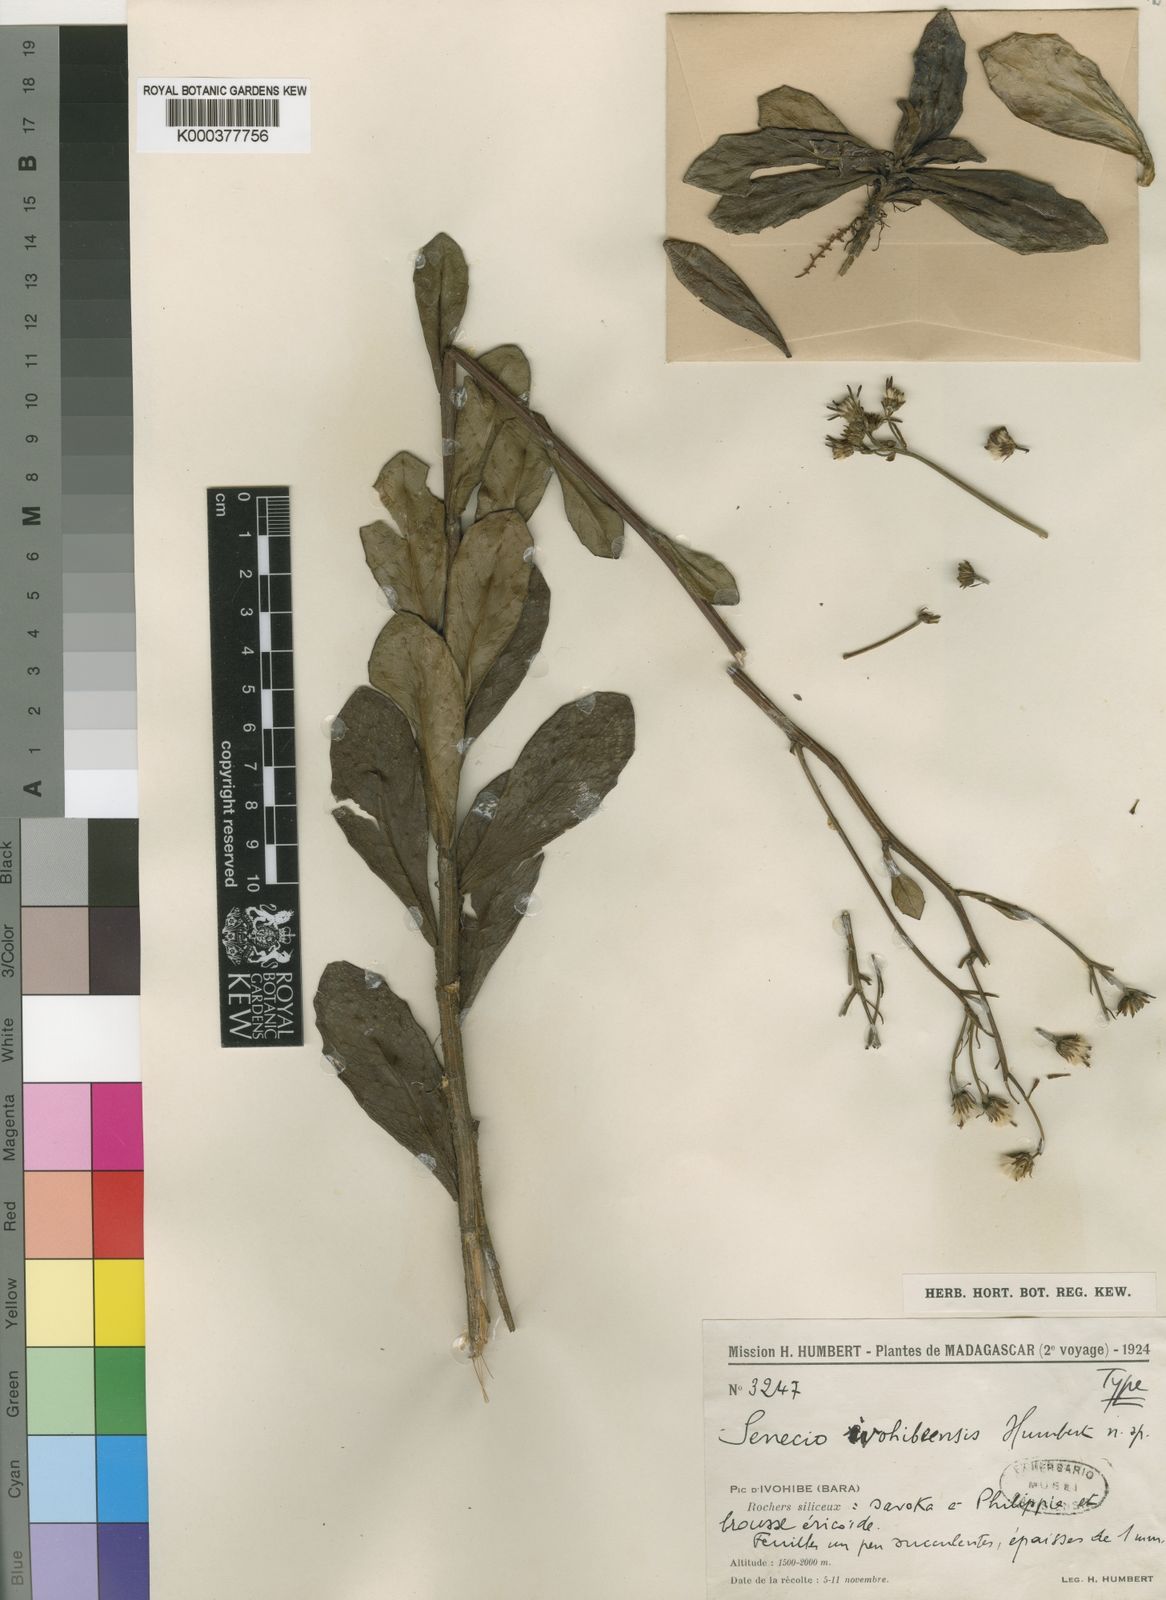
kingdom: Plantae
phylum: Tracheophyta
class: Magnoliopsida
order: Asterales
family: Asteraceae
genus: Hubertia
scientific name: Hubertia ivohibeensis
